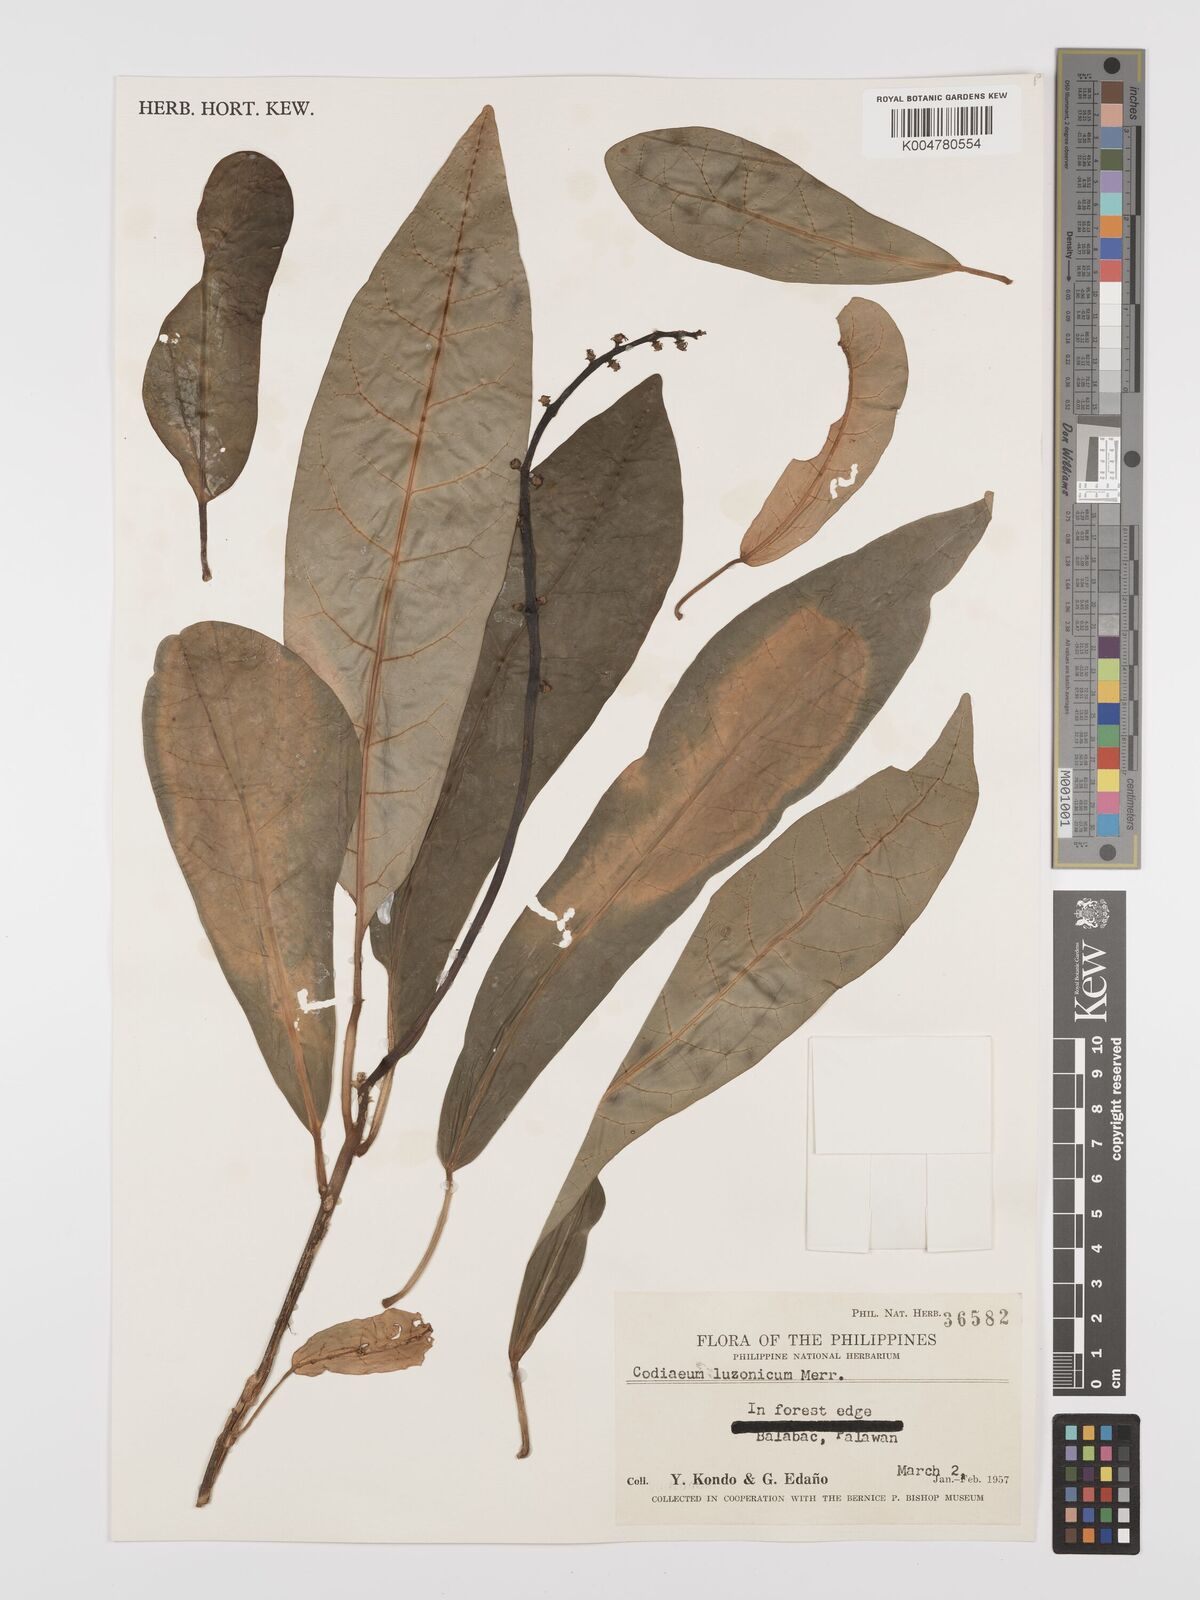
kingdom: Plantae
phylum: Tracheophyta
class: Magnoliopsida
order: Malpighiales
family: Euphorbiaceae
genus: Codiaeum
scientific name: Codiaeum luzonicum
